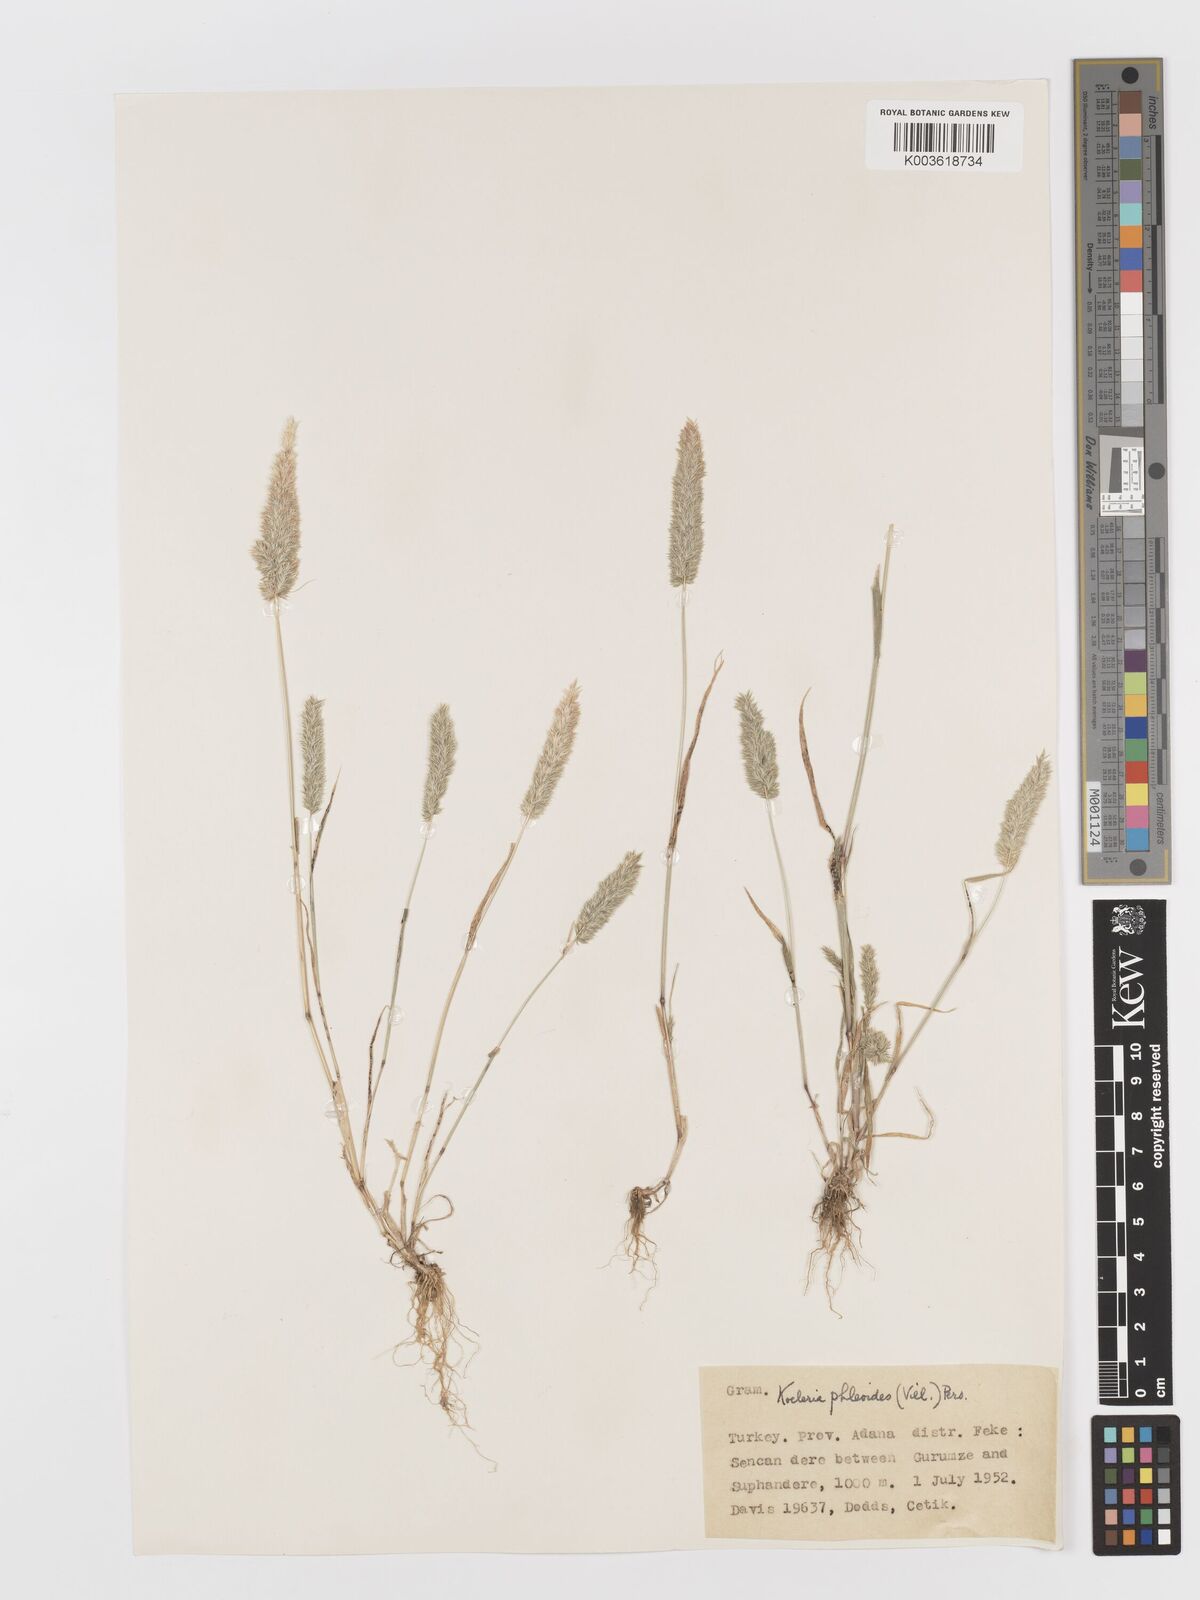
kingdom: Plantae
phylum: Tracheophyta
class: Liliopsida
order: Poales
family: Poaceae
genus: Rostraria
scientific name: Rostraria cristata
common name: Mediterranean hair-grass
